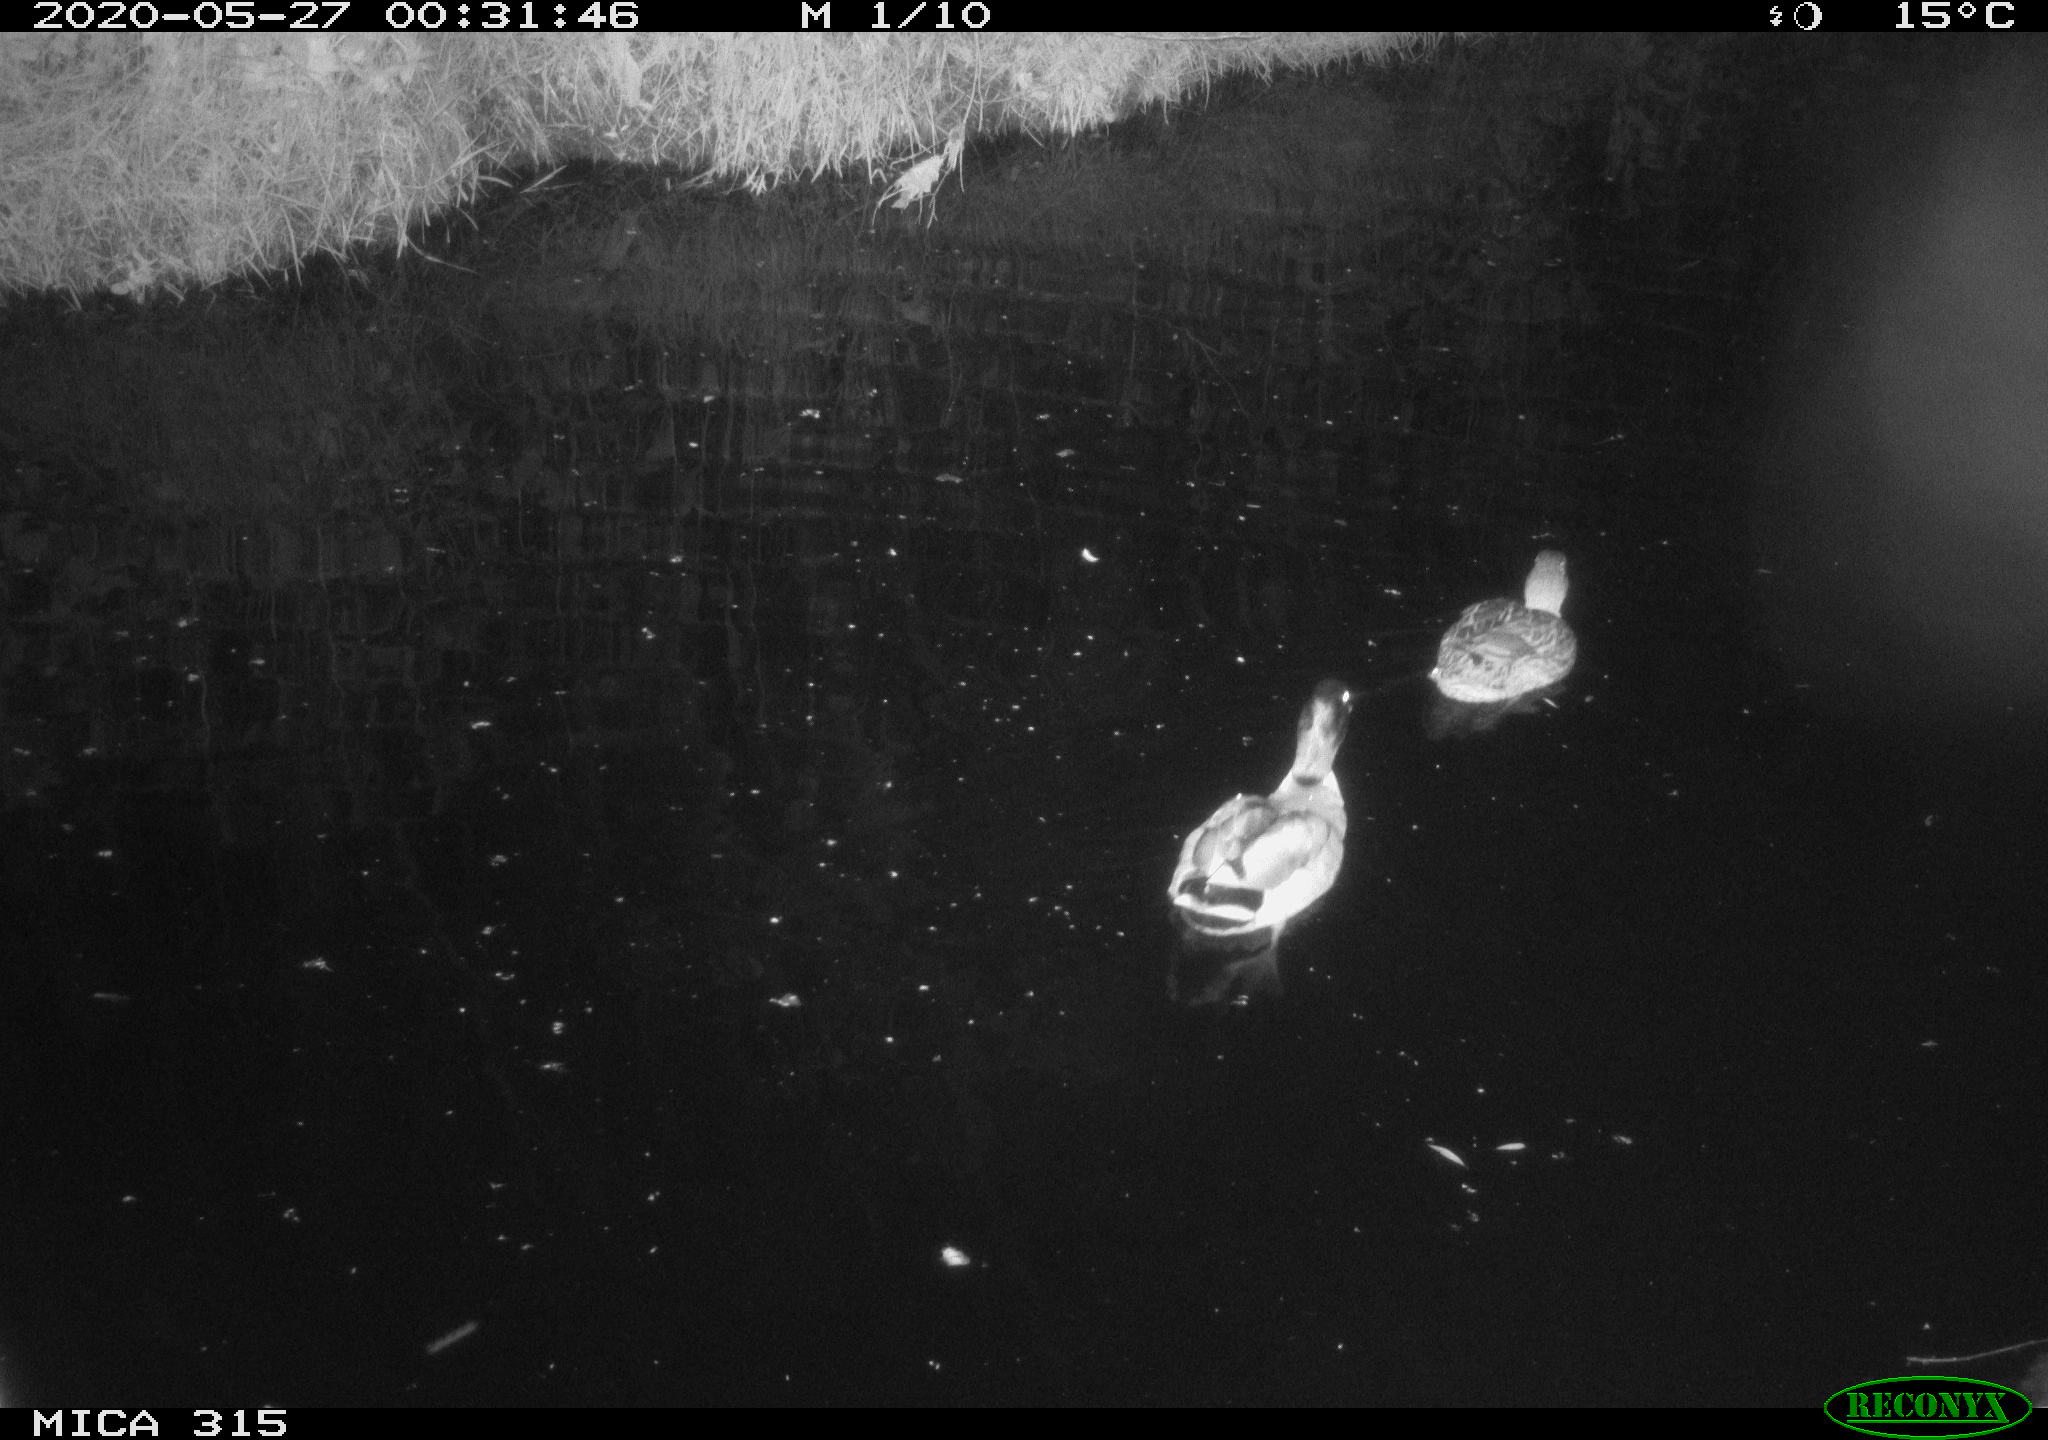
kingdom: Animalia
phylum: Chordata
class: Aves
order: Anseriformes
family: Anatidae
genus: Anas
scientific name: Anas platyrhynchos
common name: Mallard
